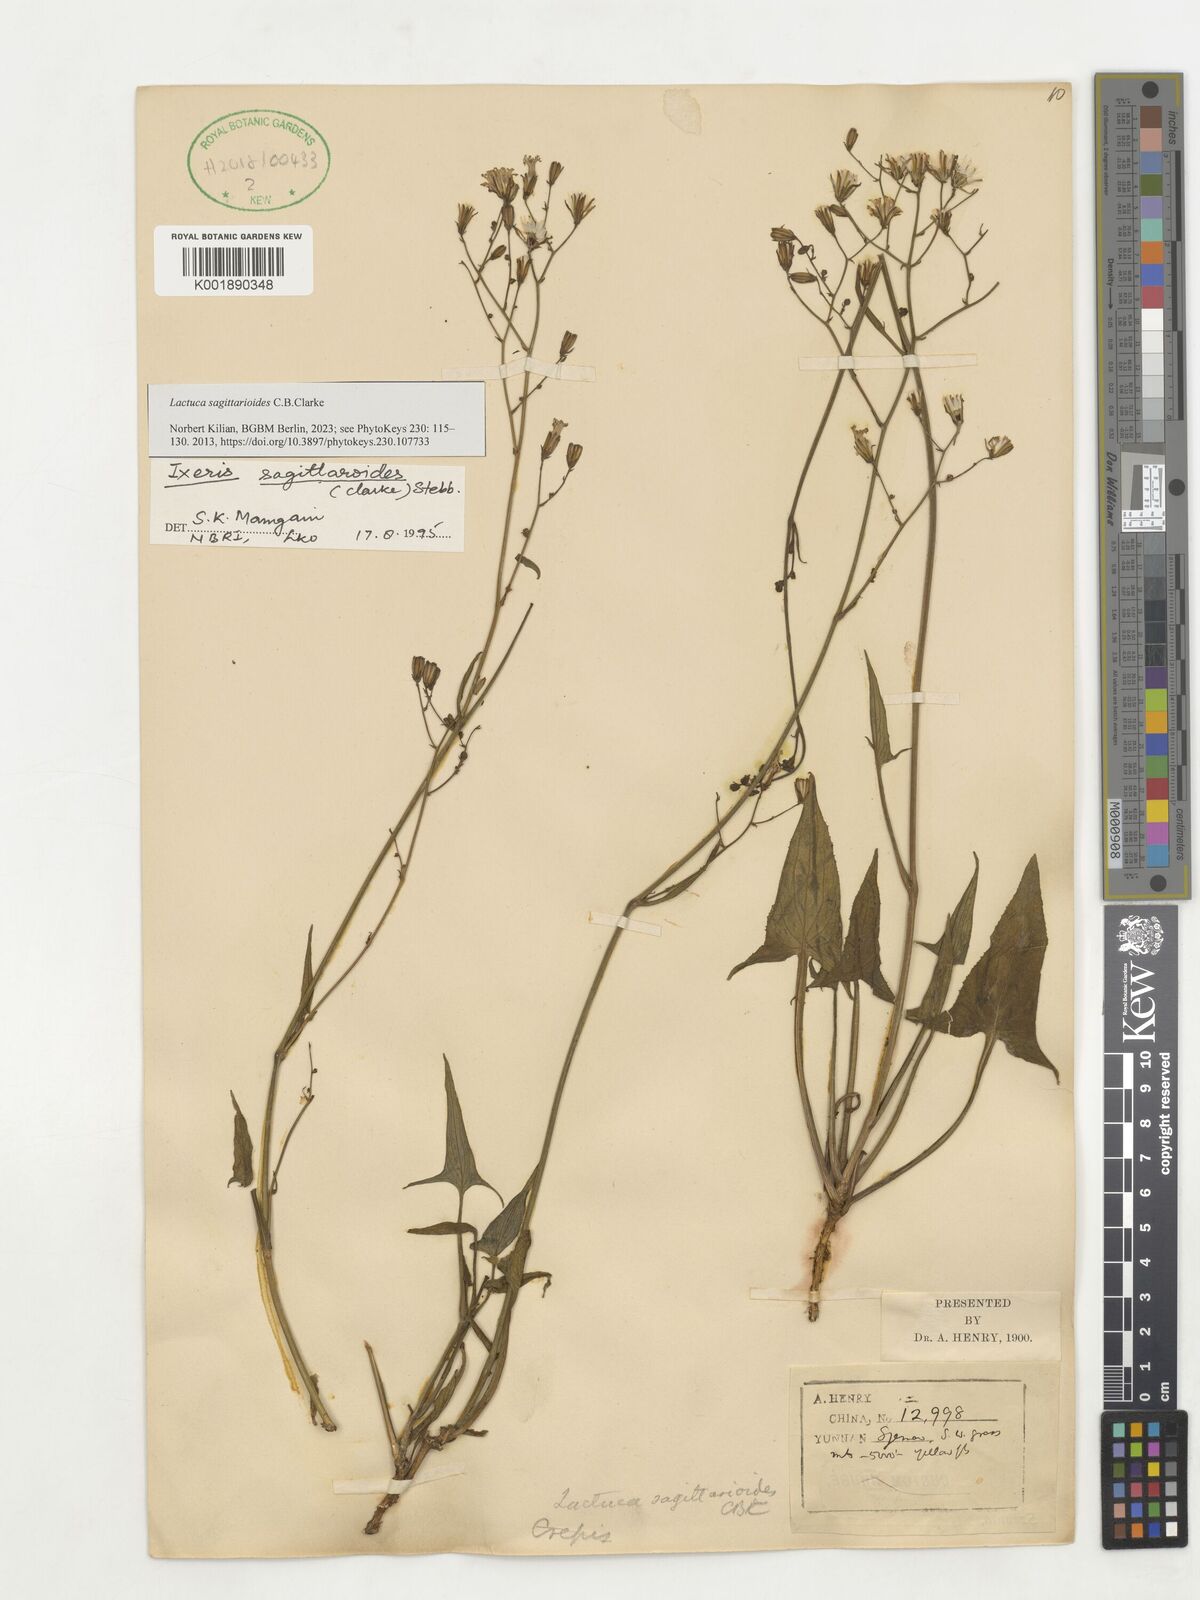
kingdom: Plantae
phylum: Tracheophyta
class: Magnoliopsida
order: Asterales
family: Asteraceae
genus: Ixeridium
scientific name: Ixeridium sagittarioides
